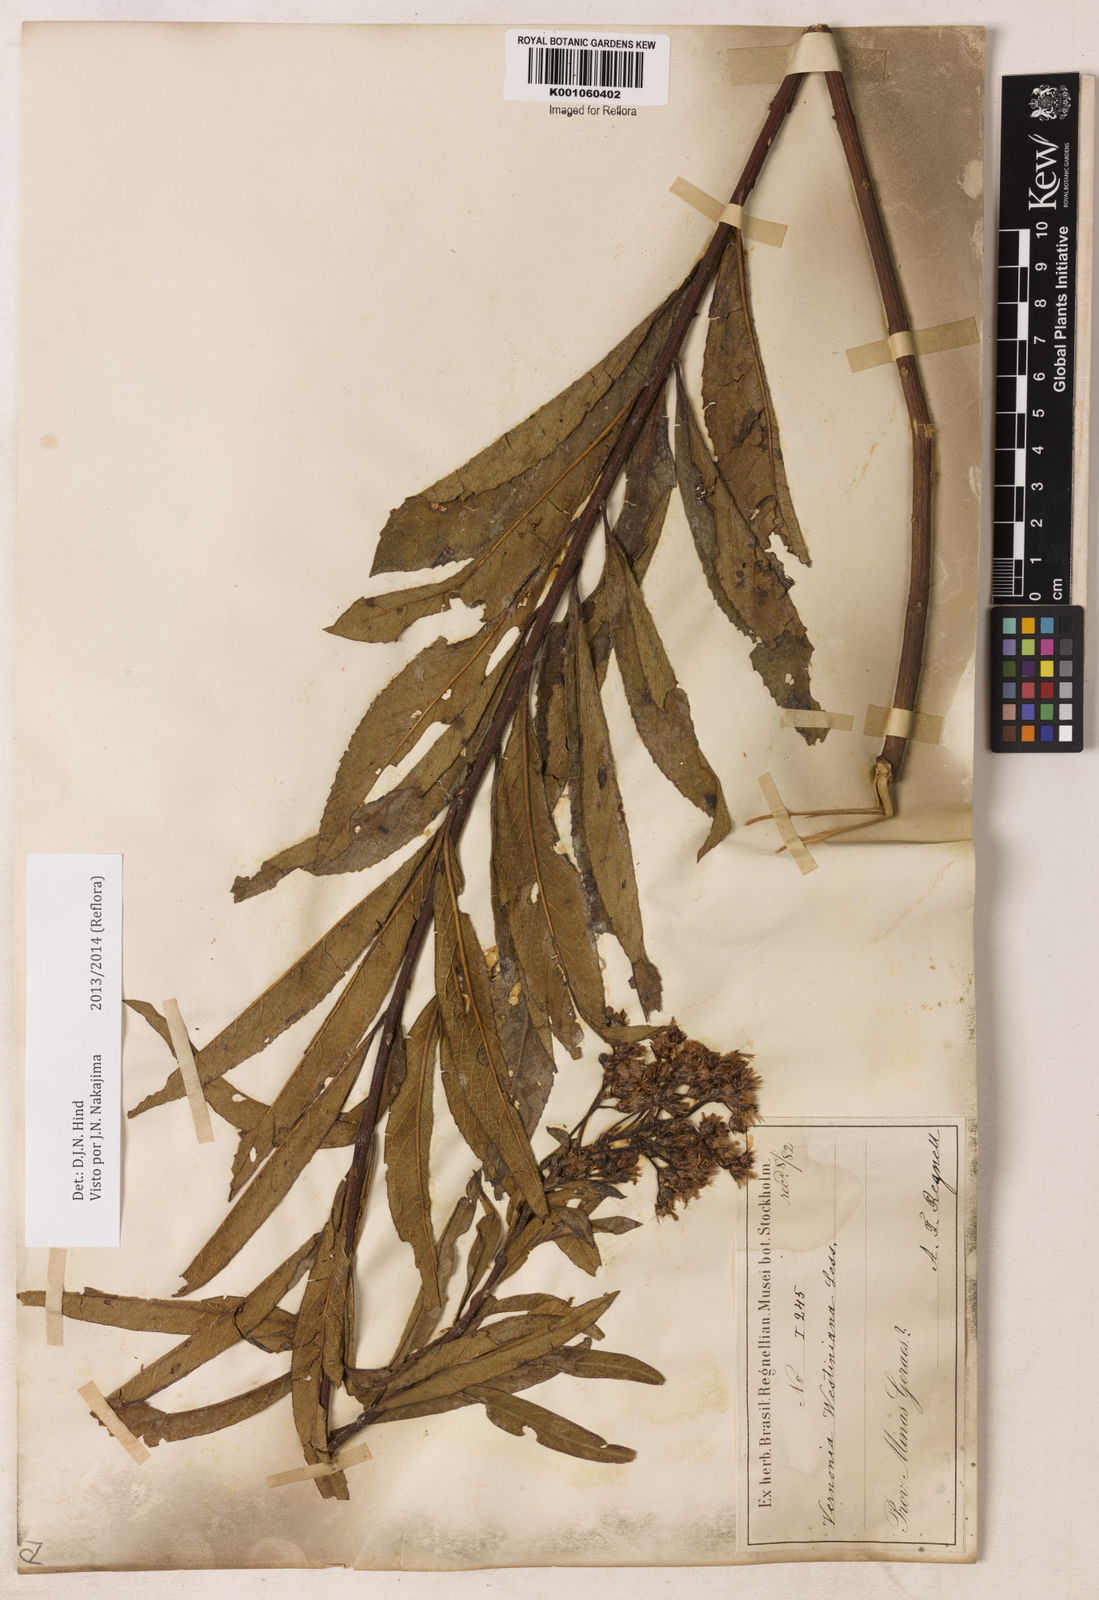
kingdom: Plantae
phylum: Tracheophyta
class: Magnoliopsida
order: Asterales
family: Asteraceae
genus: Vernonanthura
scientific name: Vernonanthura westiniana
